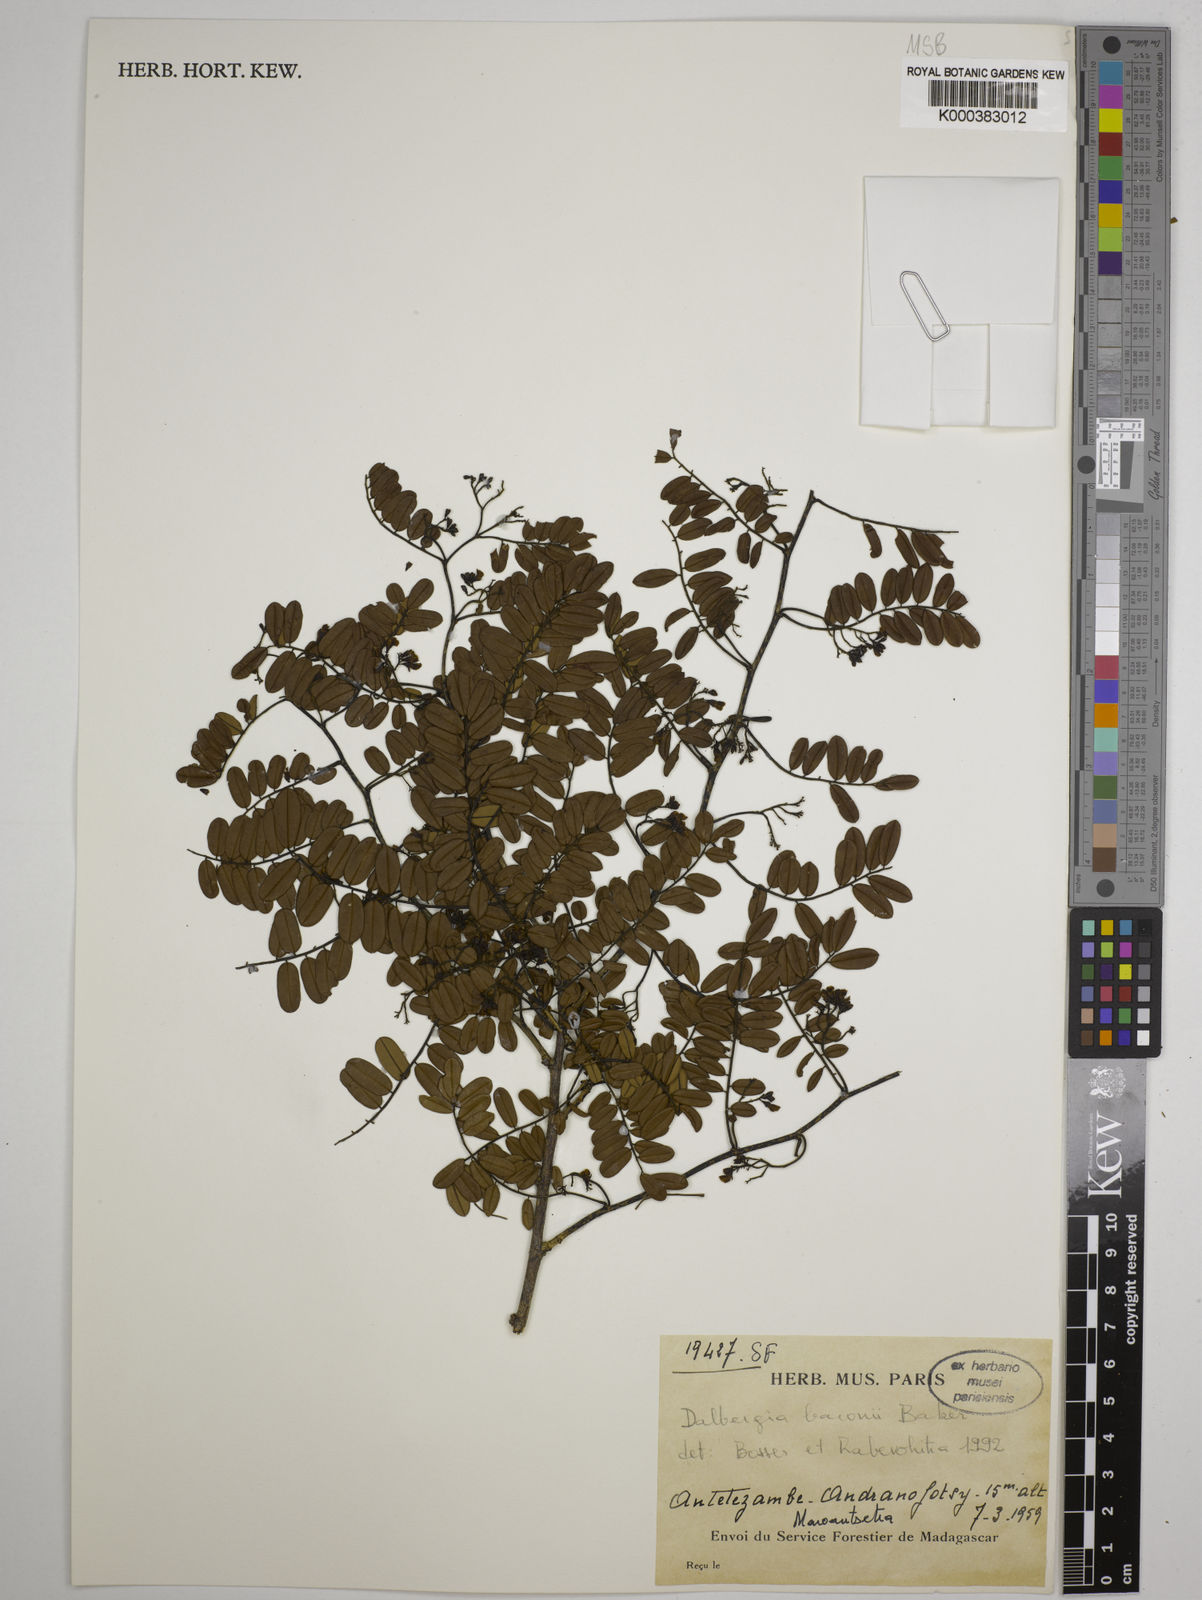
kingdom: Plantae
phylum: Tracheophyta
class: Magnoliopsida
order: Fabales
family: Fabaceae
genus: Dalbergia
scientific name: Dalbergia baronii
